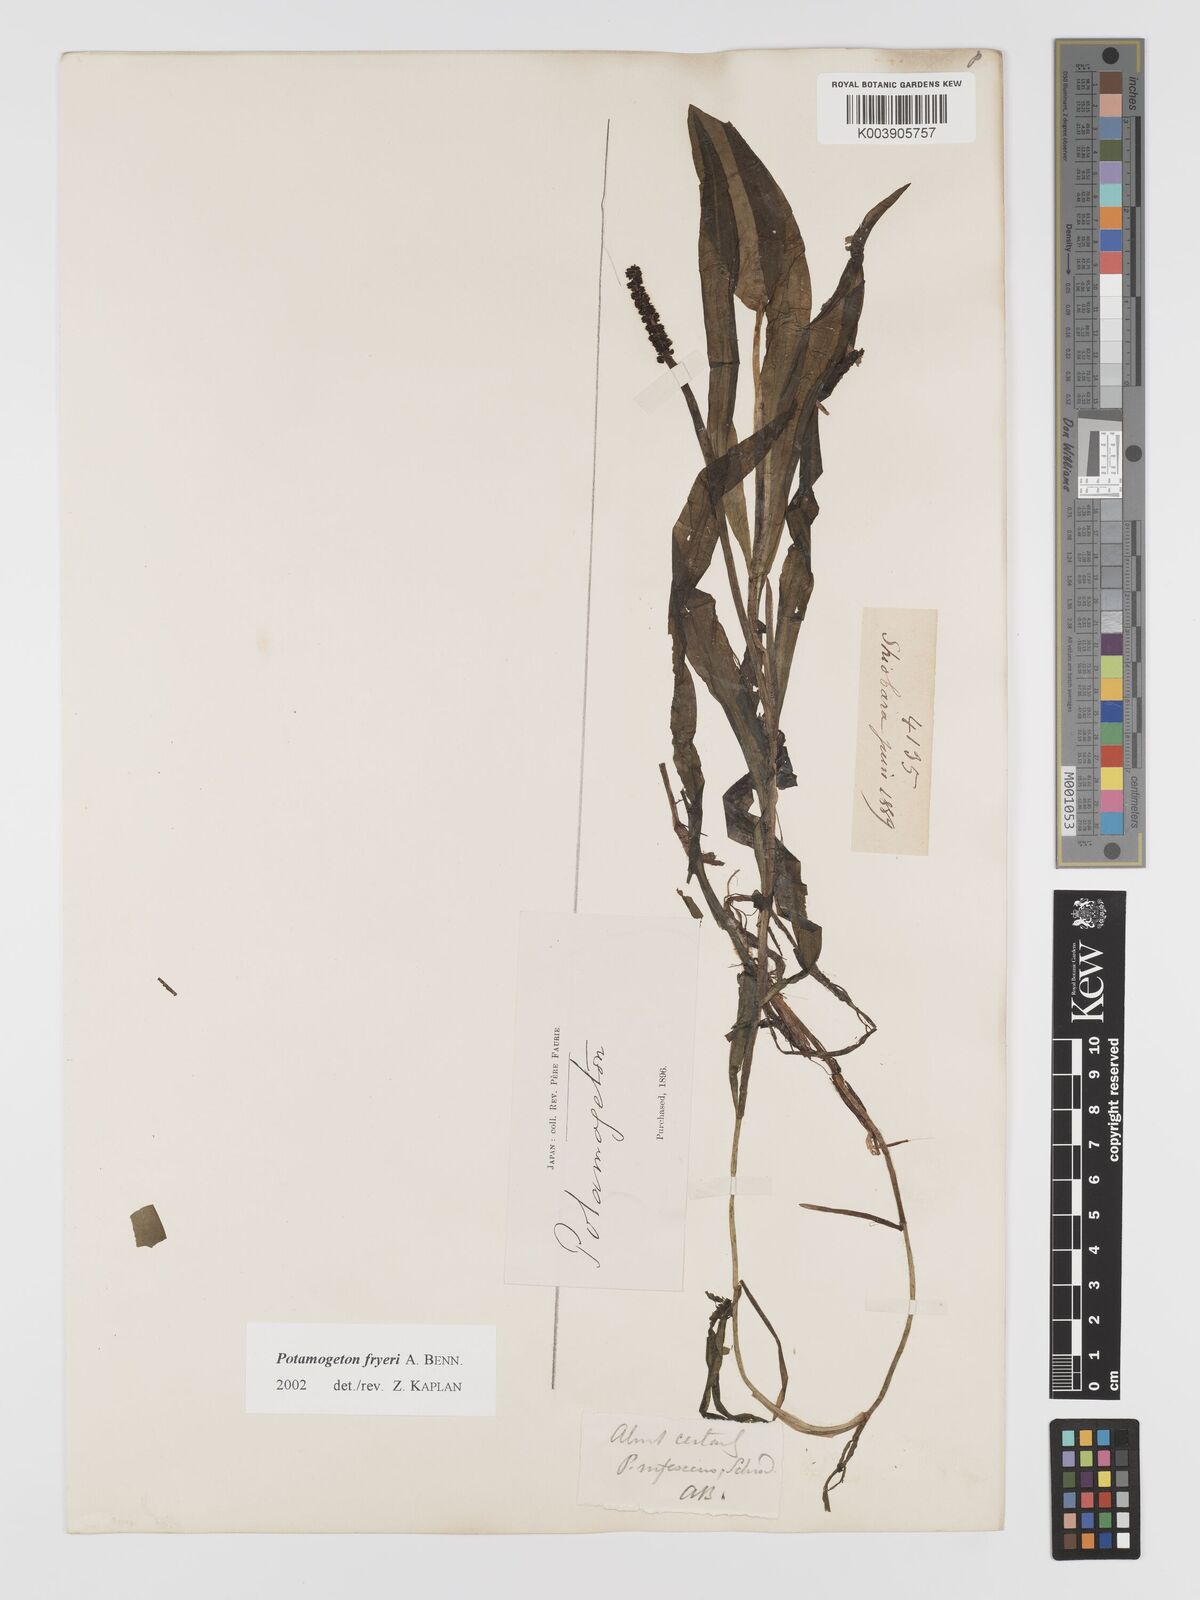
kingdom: Plantae
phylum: Tracheophyta
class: Liliopsida
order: Alismatales
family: Potamogetonaceae
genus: Potamogeton
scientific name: Potamogeton fryeri
